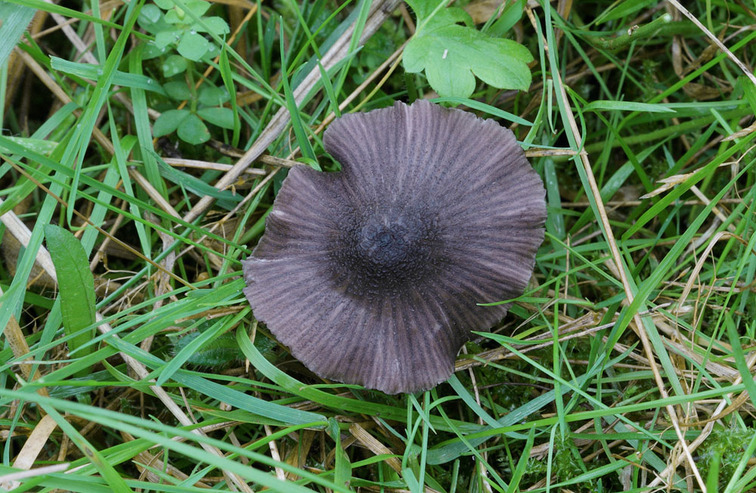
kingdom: Fungi
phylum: Basidiomycota
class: Agaricomycetes
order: Agaricales
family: Entolomataceae
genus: Entoloma
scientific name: Entoloma chalybeum
